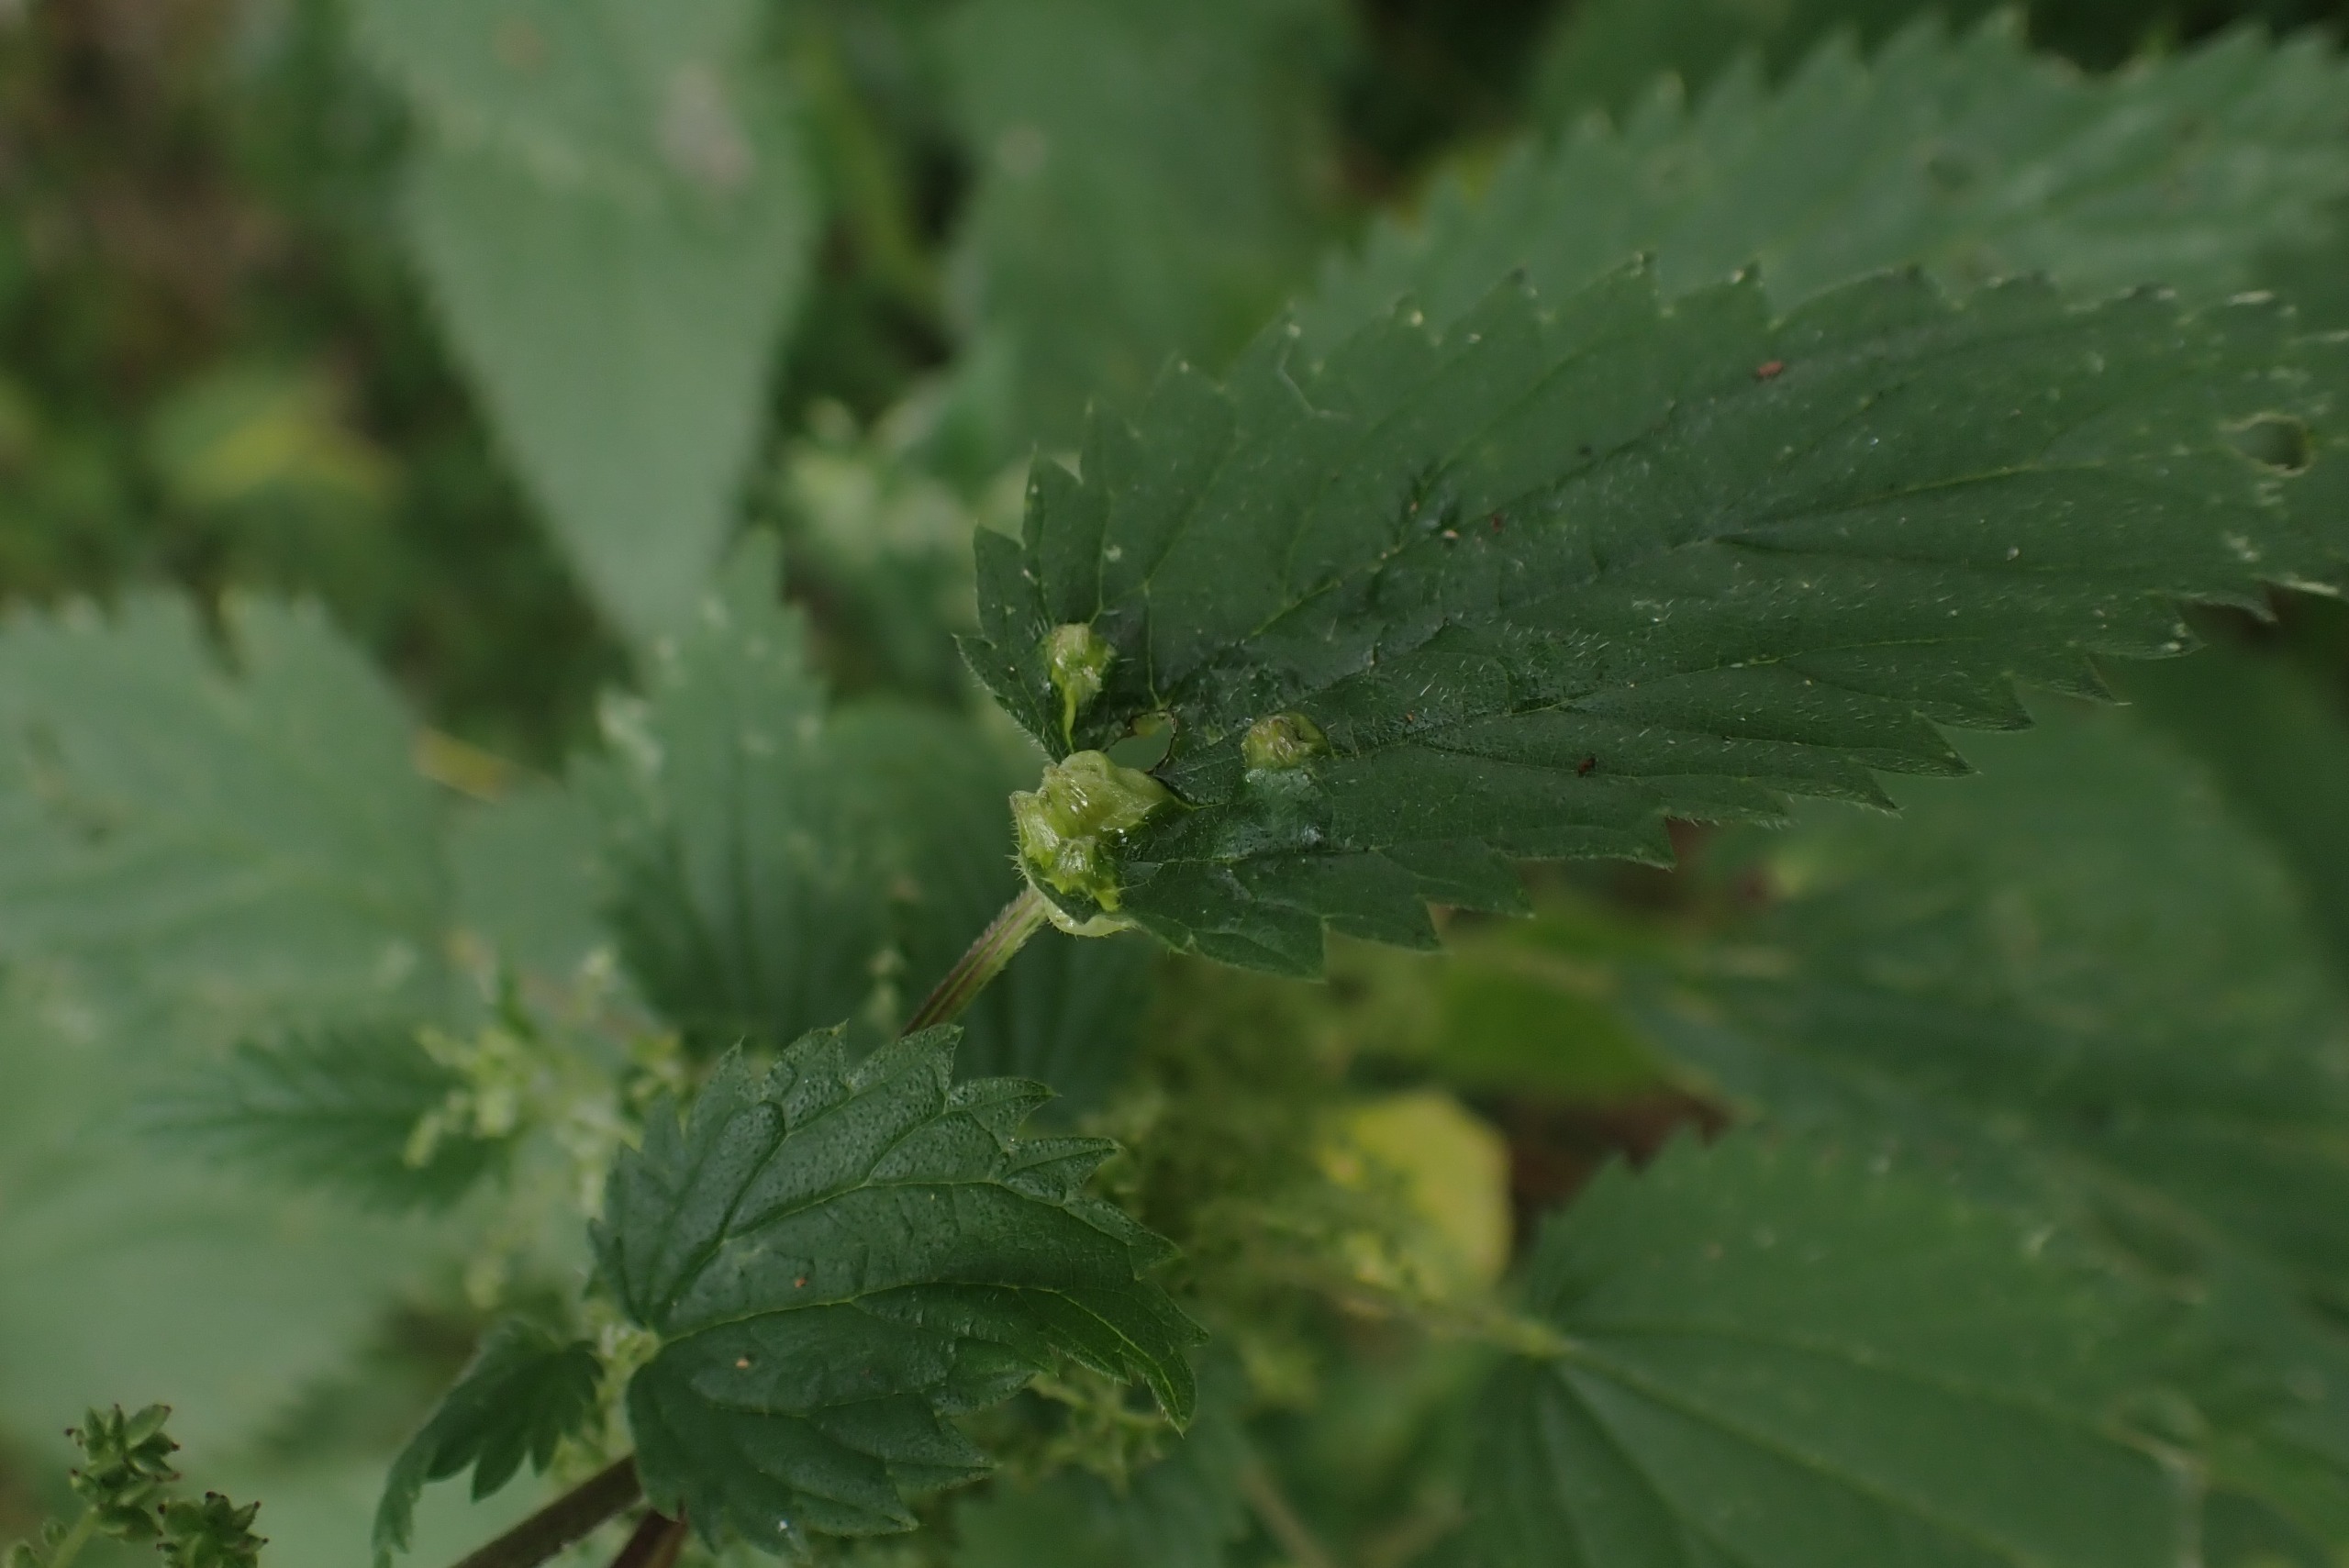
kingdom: Animalia
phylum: Arthropoda
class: Insecta
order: Diptera
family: Cecidomyiidae
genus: Dasineura
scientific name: Dasineura urticae
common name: Nældepunggalmyg
